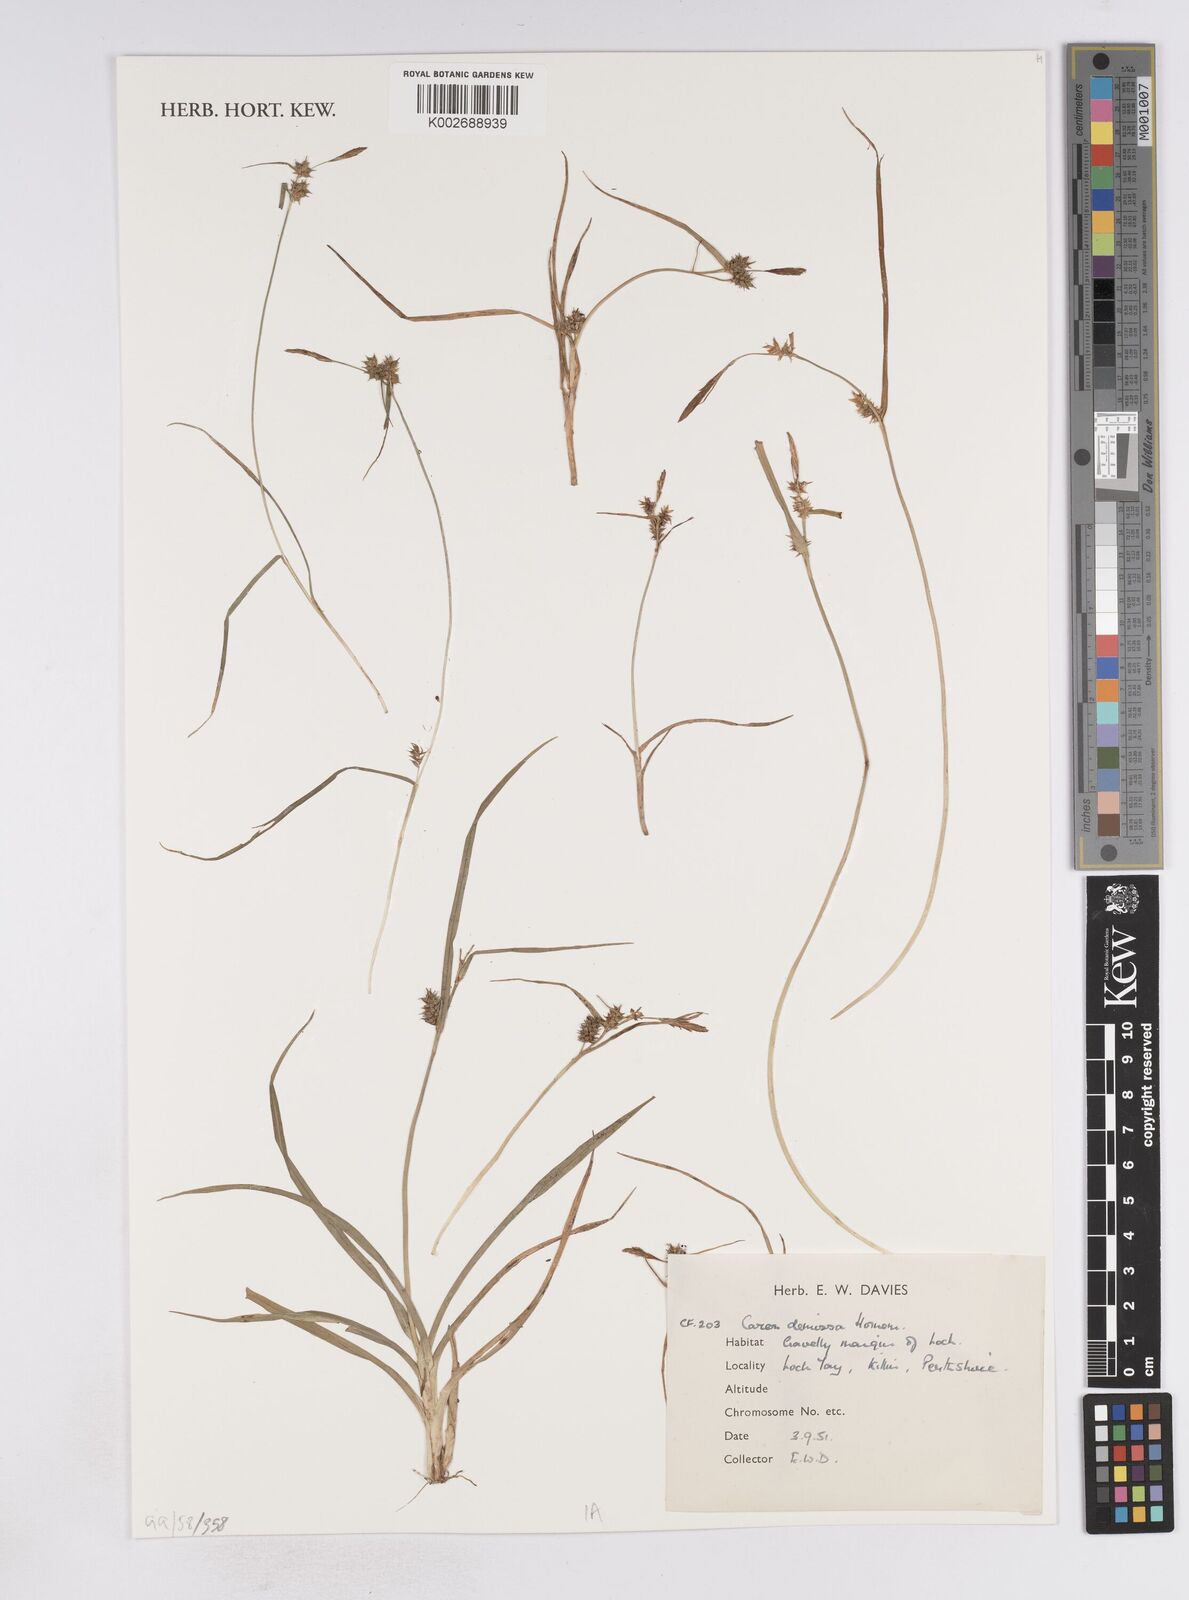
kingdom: Plantae
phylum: Tracheophyta
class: Liliopsida
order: Poales
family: Cyperaceae
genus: Carex
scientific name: Carex demissa
